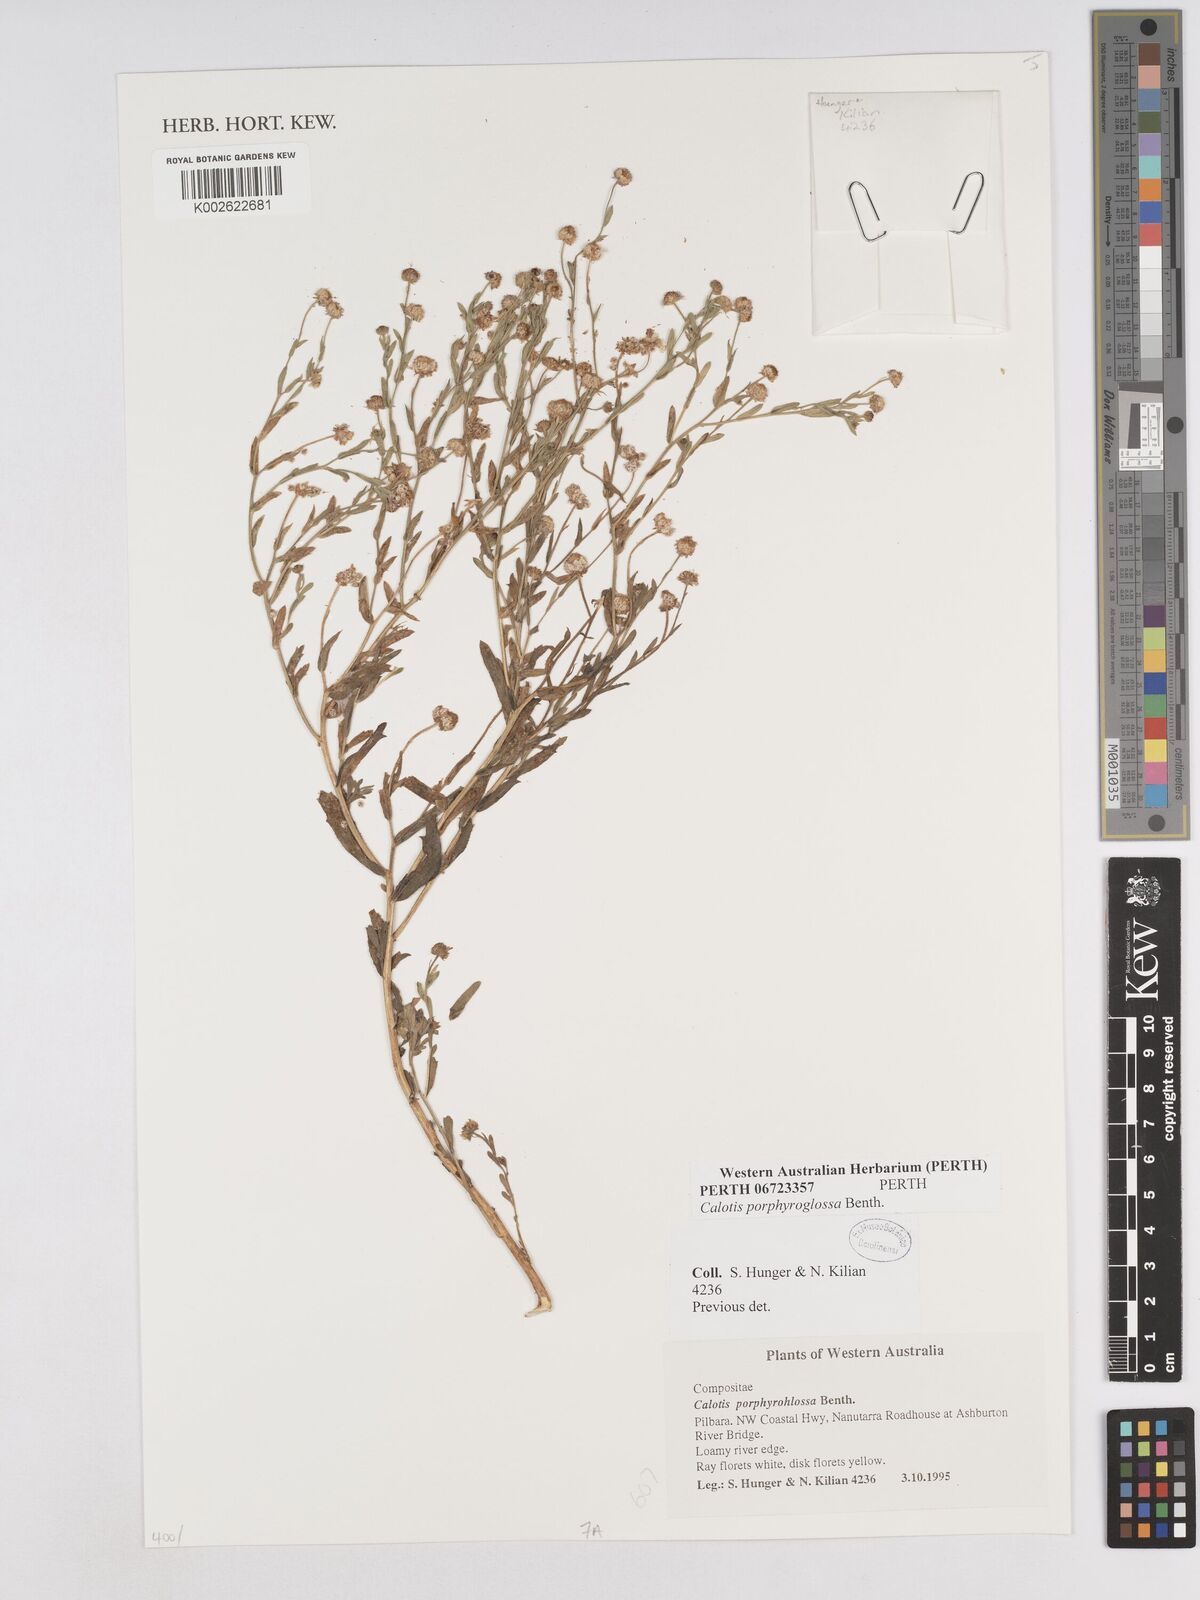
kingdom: Plantae
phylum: Tracheophyta
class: Magnoliopsida
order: Asterales
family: Asteraceae
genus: Calotis
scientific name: Calotis porphyroglossa
